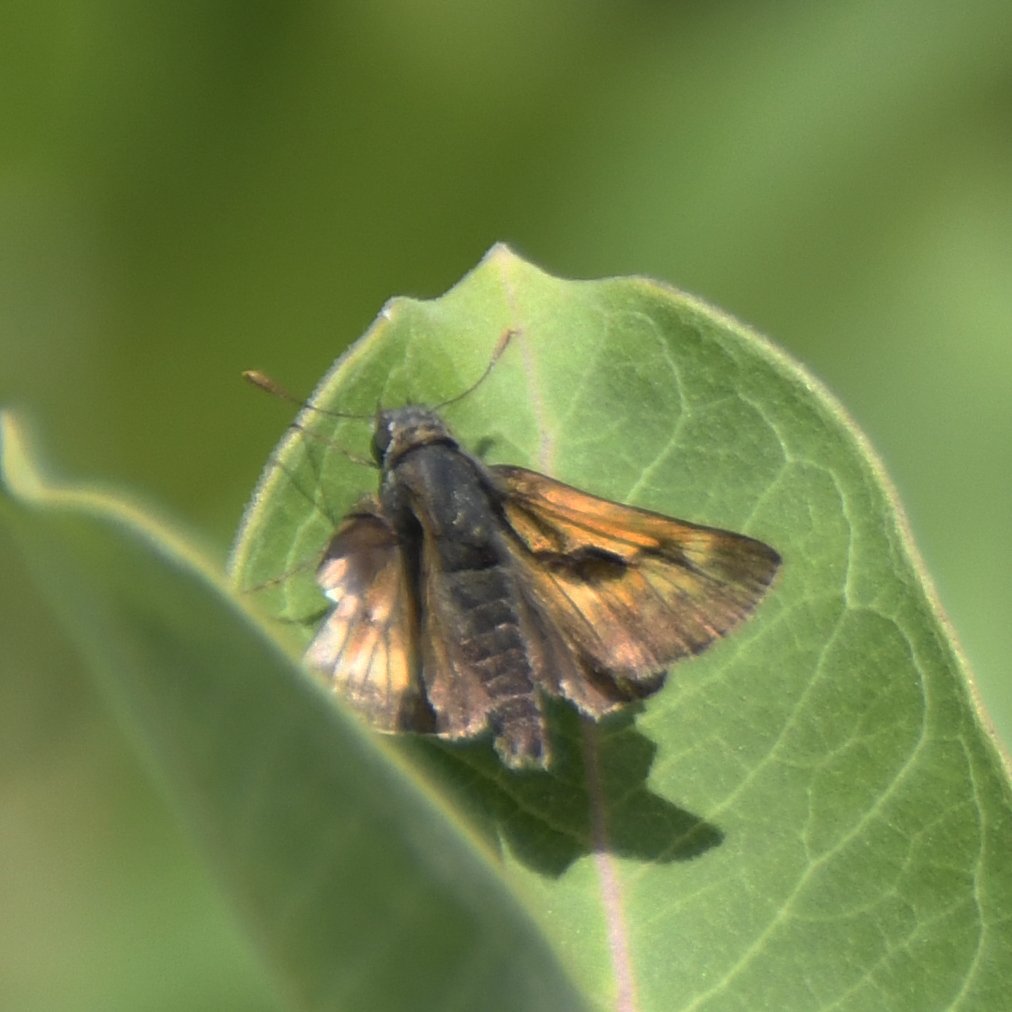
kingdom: Animalia
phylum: Arthropoda
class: Insecta
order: Lepidoptera
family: Hesperiidae
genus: Polites
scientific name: Polites
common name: Long Dash Skipper
